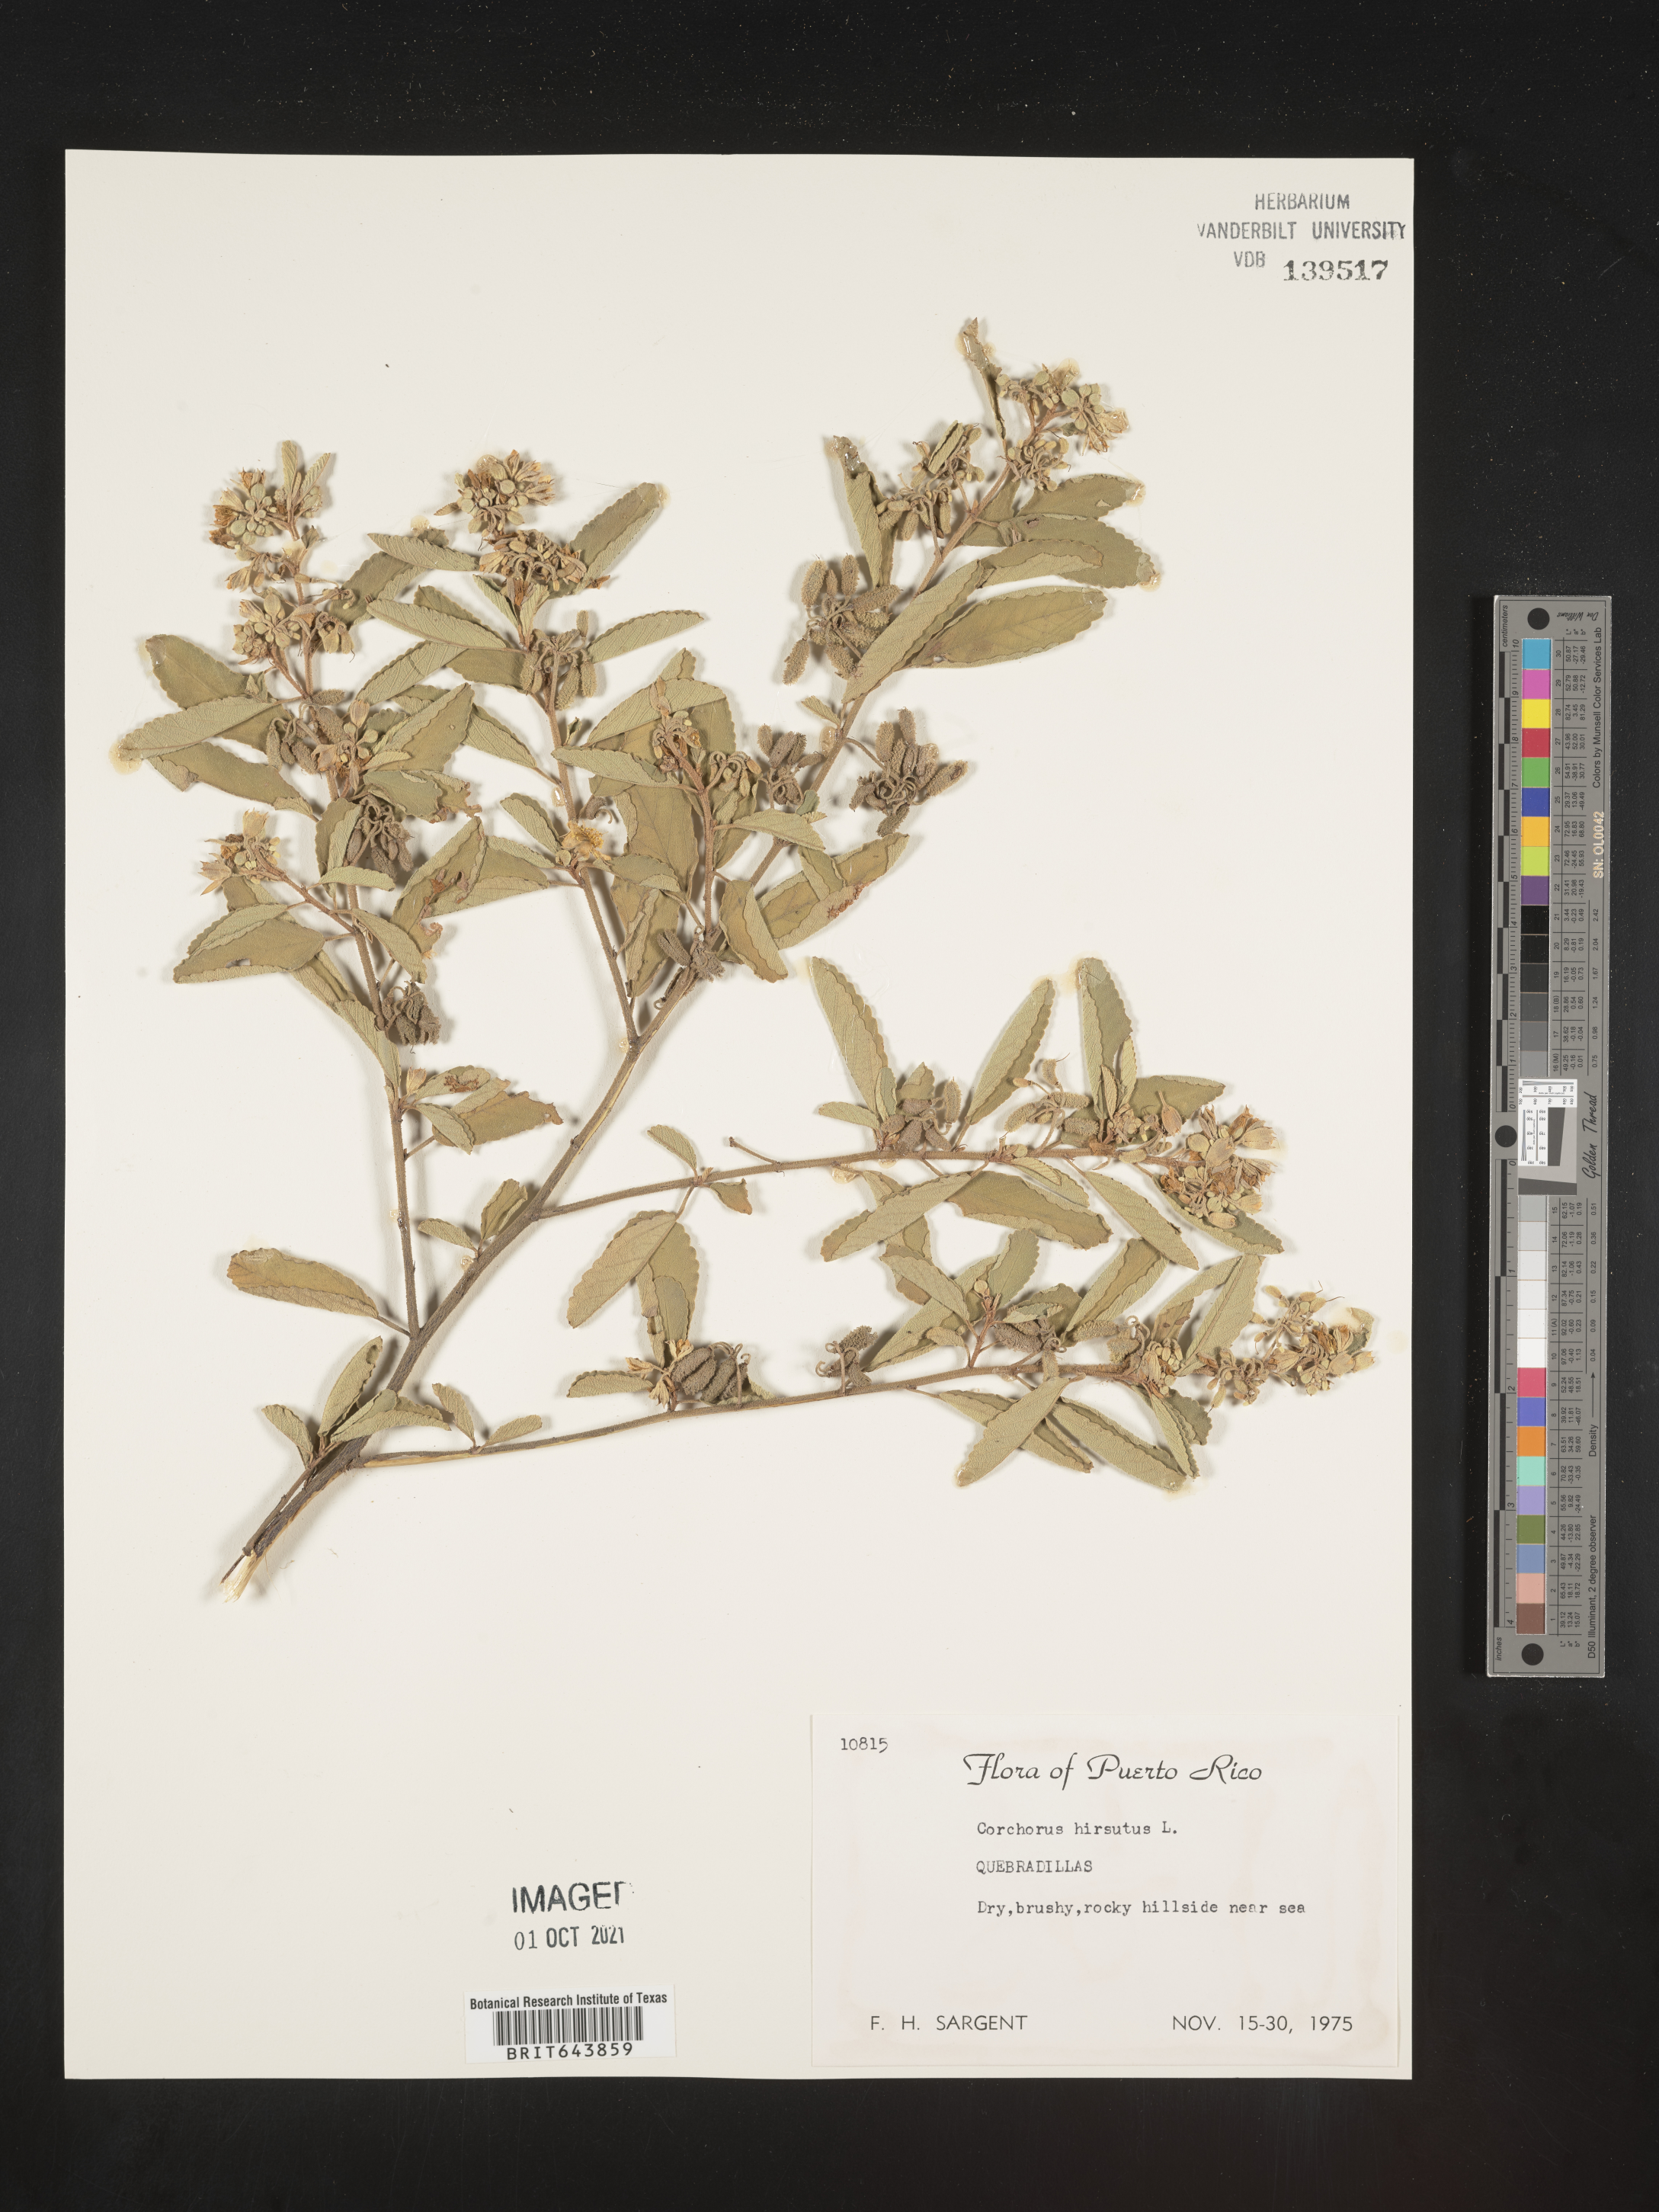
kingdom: Plantae
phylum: Tracheophyta
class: Magnoliopsida
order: Malvales
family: Malvaceae
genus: Corchorus
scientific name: Corchorus
